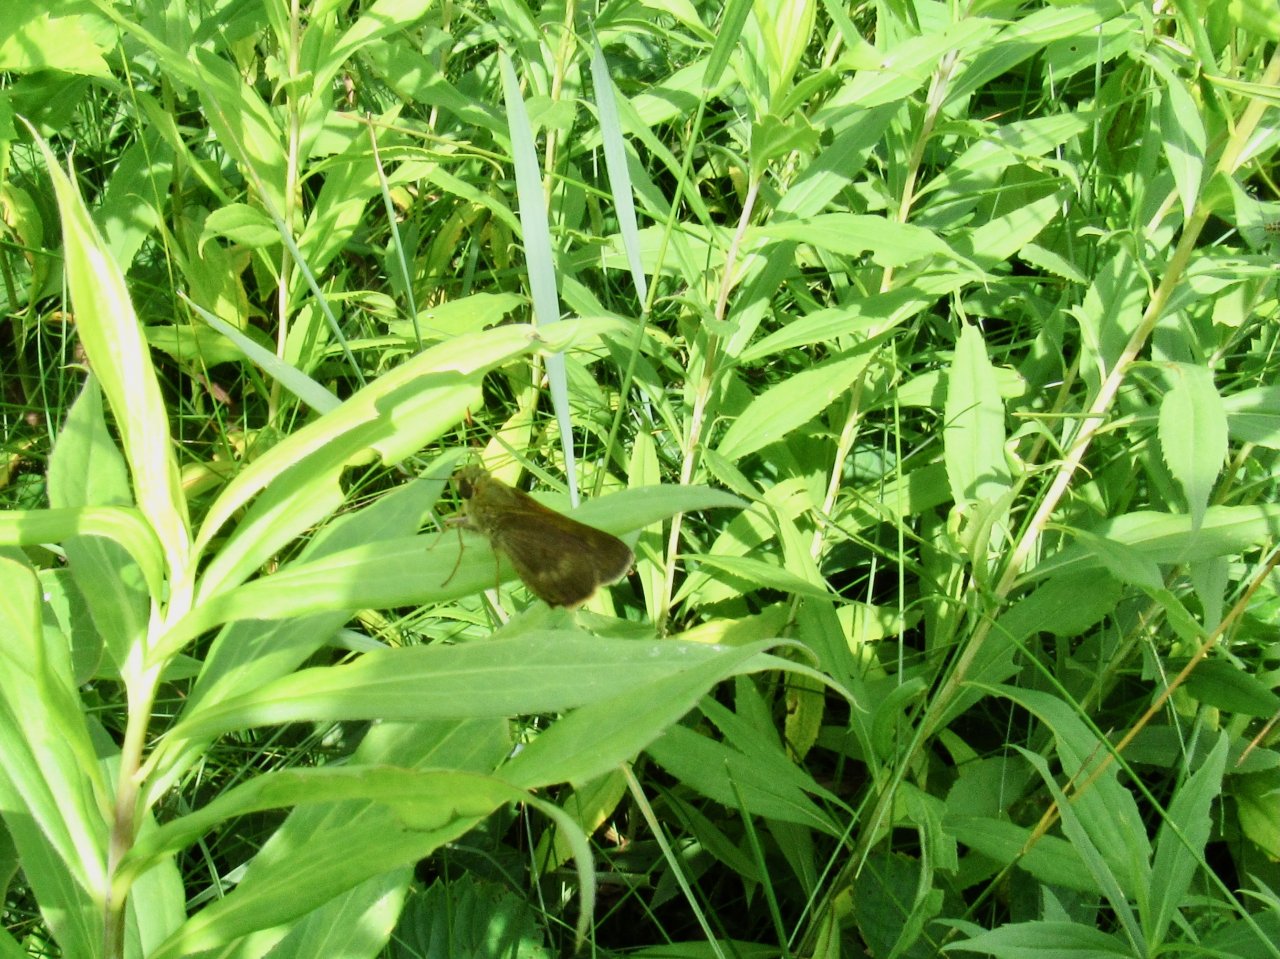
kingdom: Animalia
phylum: Arthropoda
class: Insecta
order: Lepidoptera
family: Hesperiidae
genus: Polites
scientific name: Polites egeremet
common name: Northern Broken-Dash
